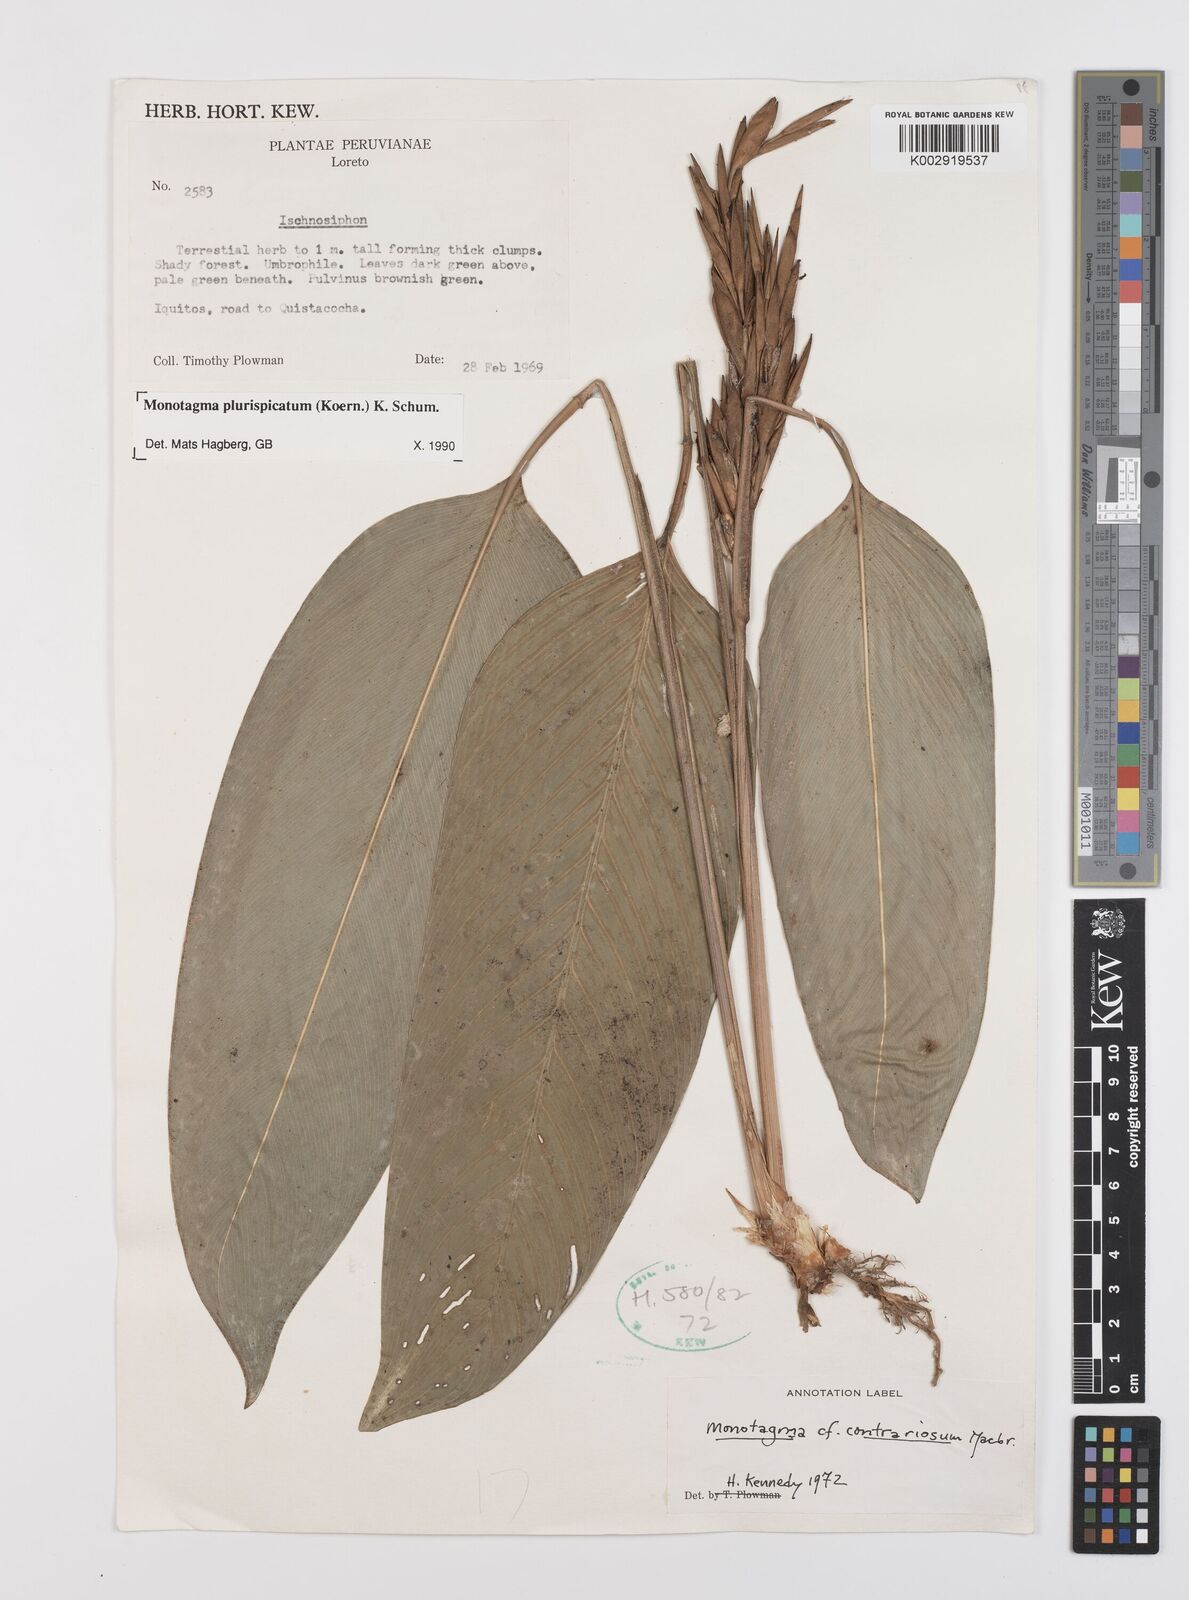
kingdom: Plantae
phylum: Tracheophyta
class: Liliopsida
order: Zingiberales
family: Marantaceae
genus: Monotagma
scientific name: Monotagma plurispicatum
